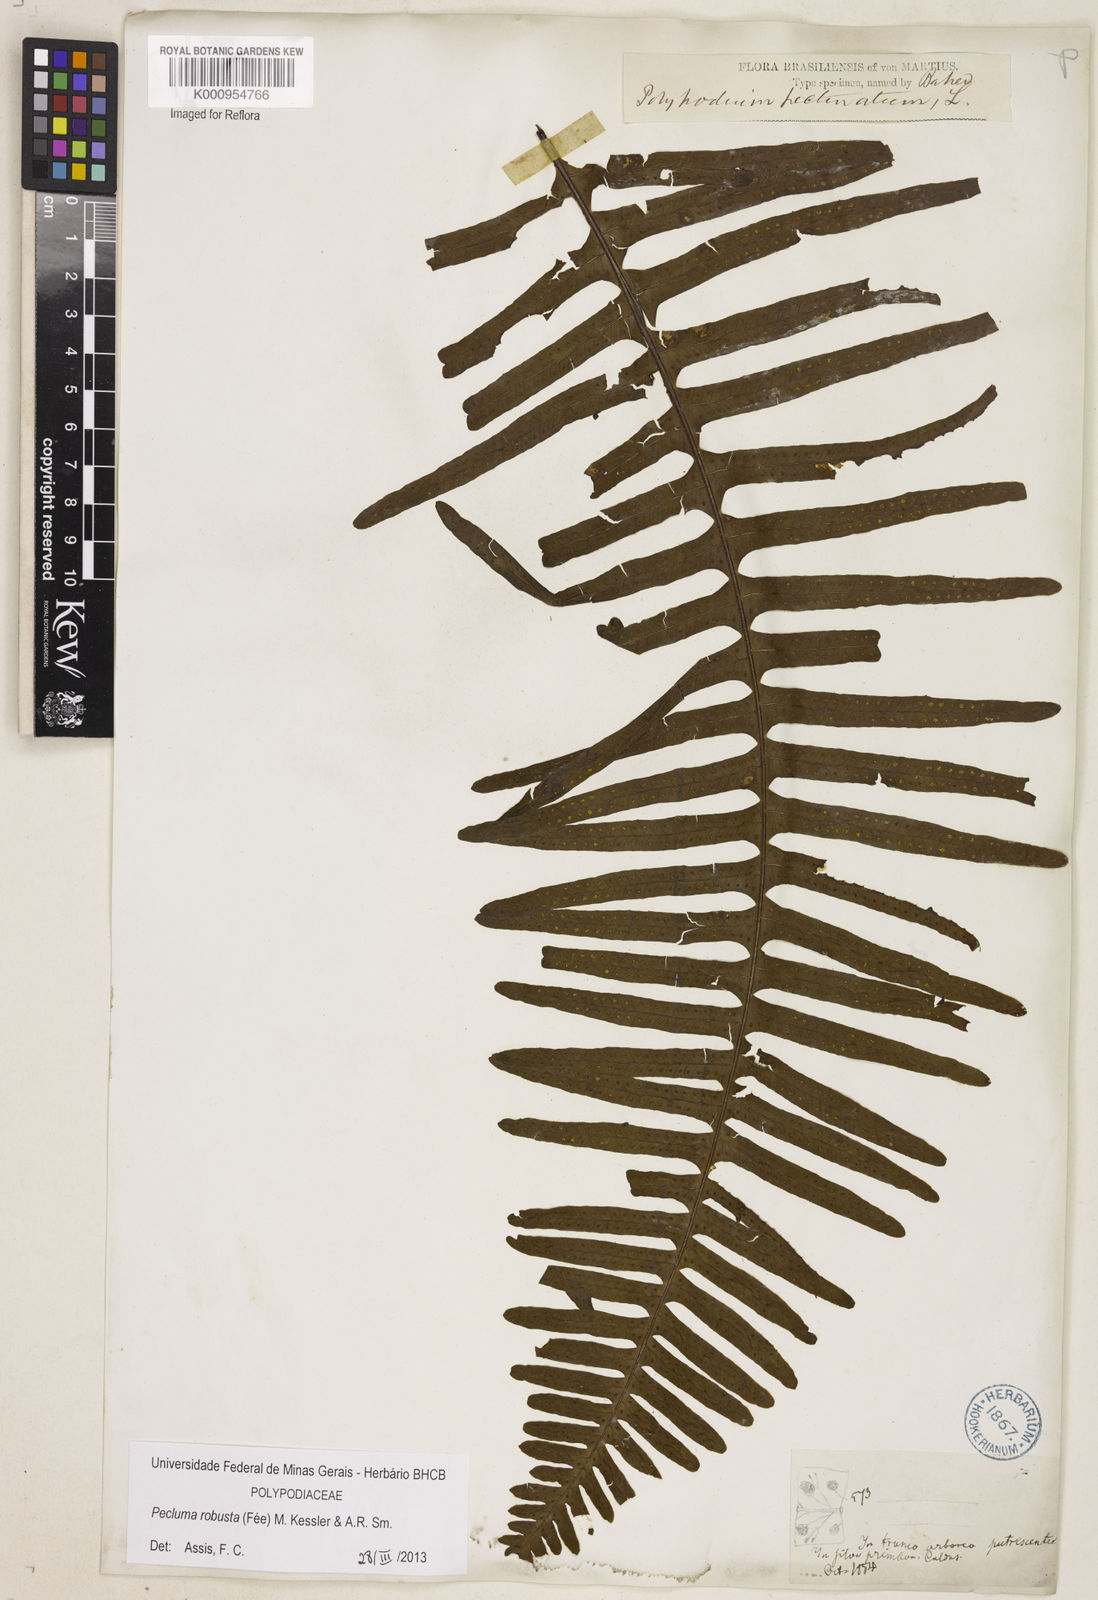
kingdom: Plantae
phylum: Tracheophyta
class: Polypodiopsida
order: Polypodiales
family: Polypodiaceae
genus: Pecluma
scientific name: Pecluma
